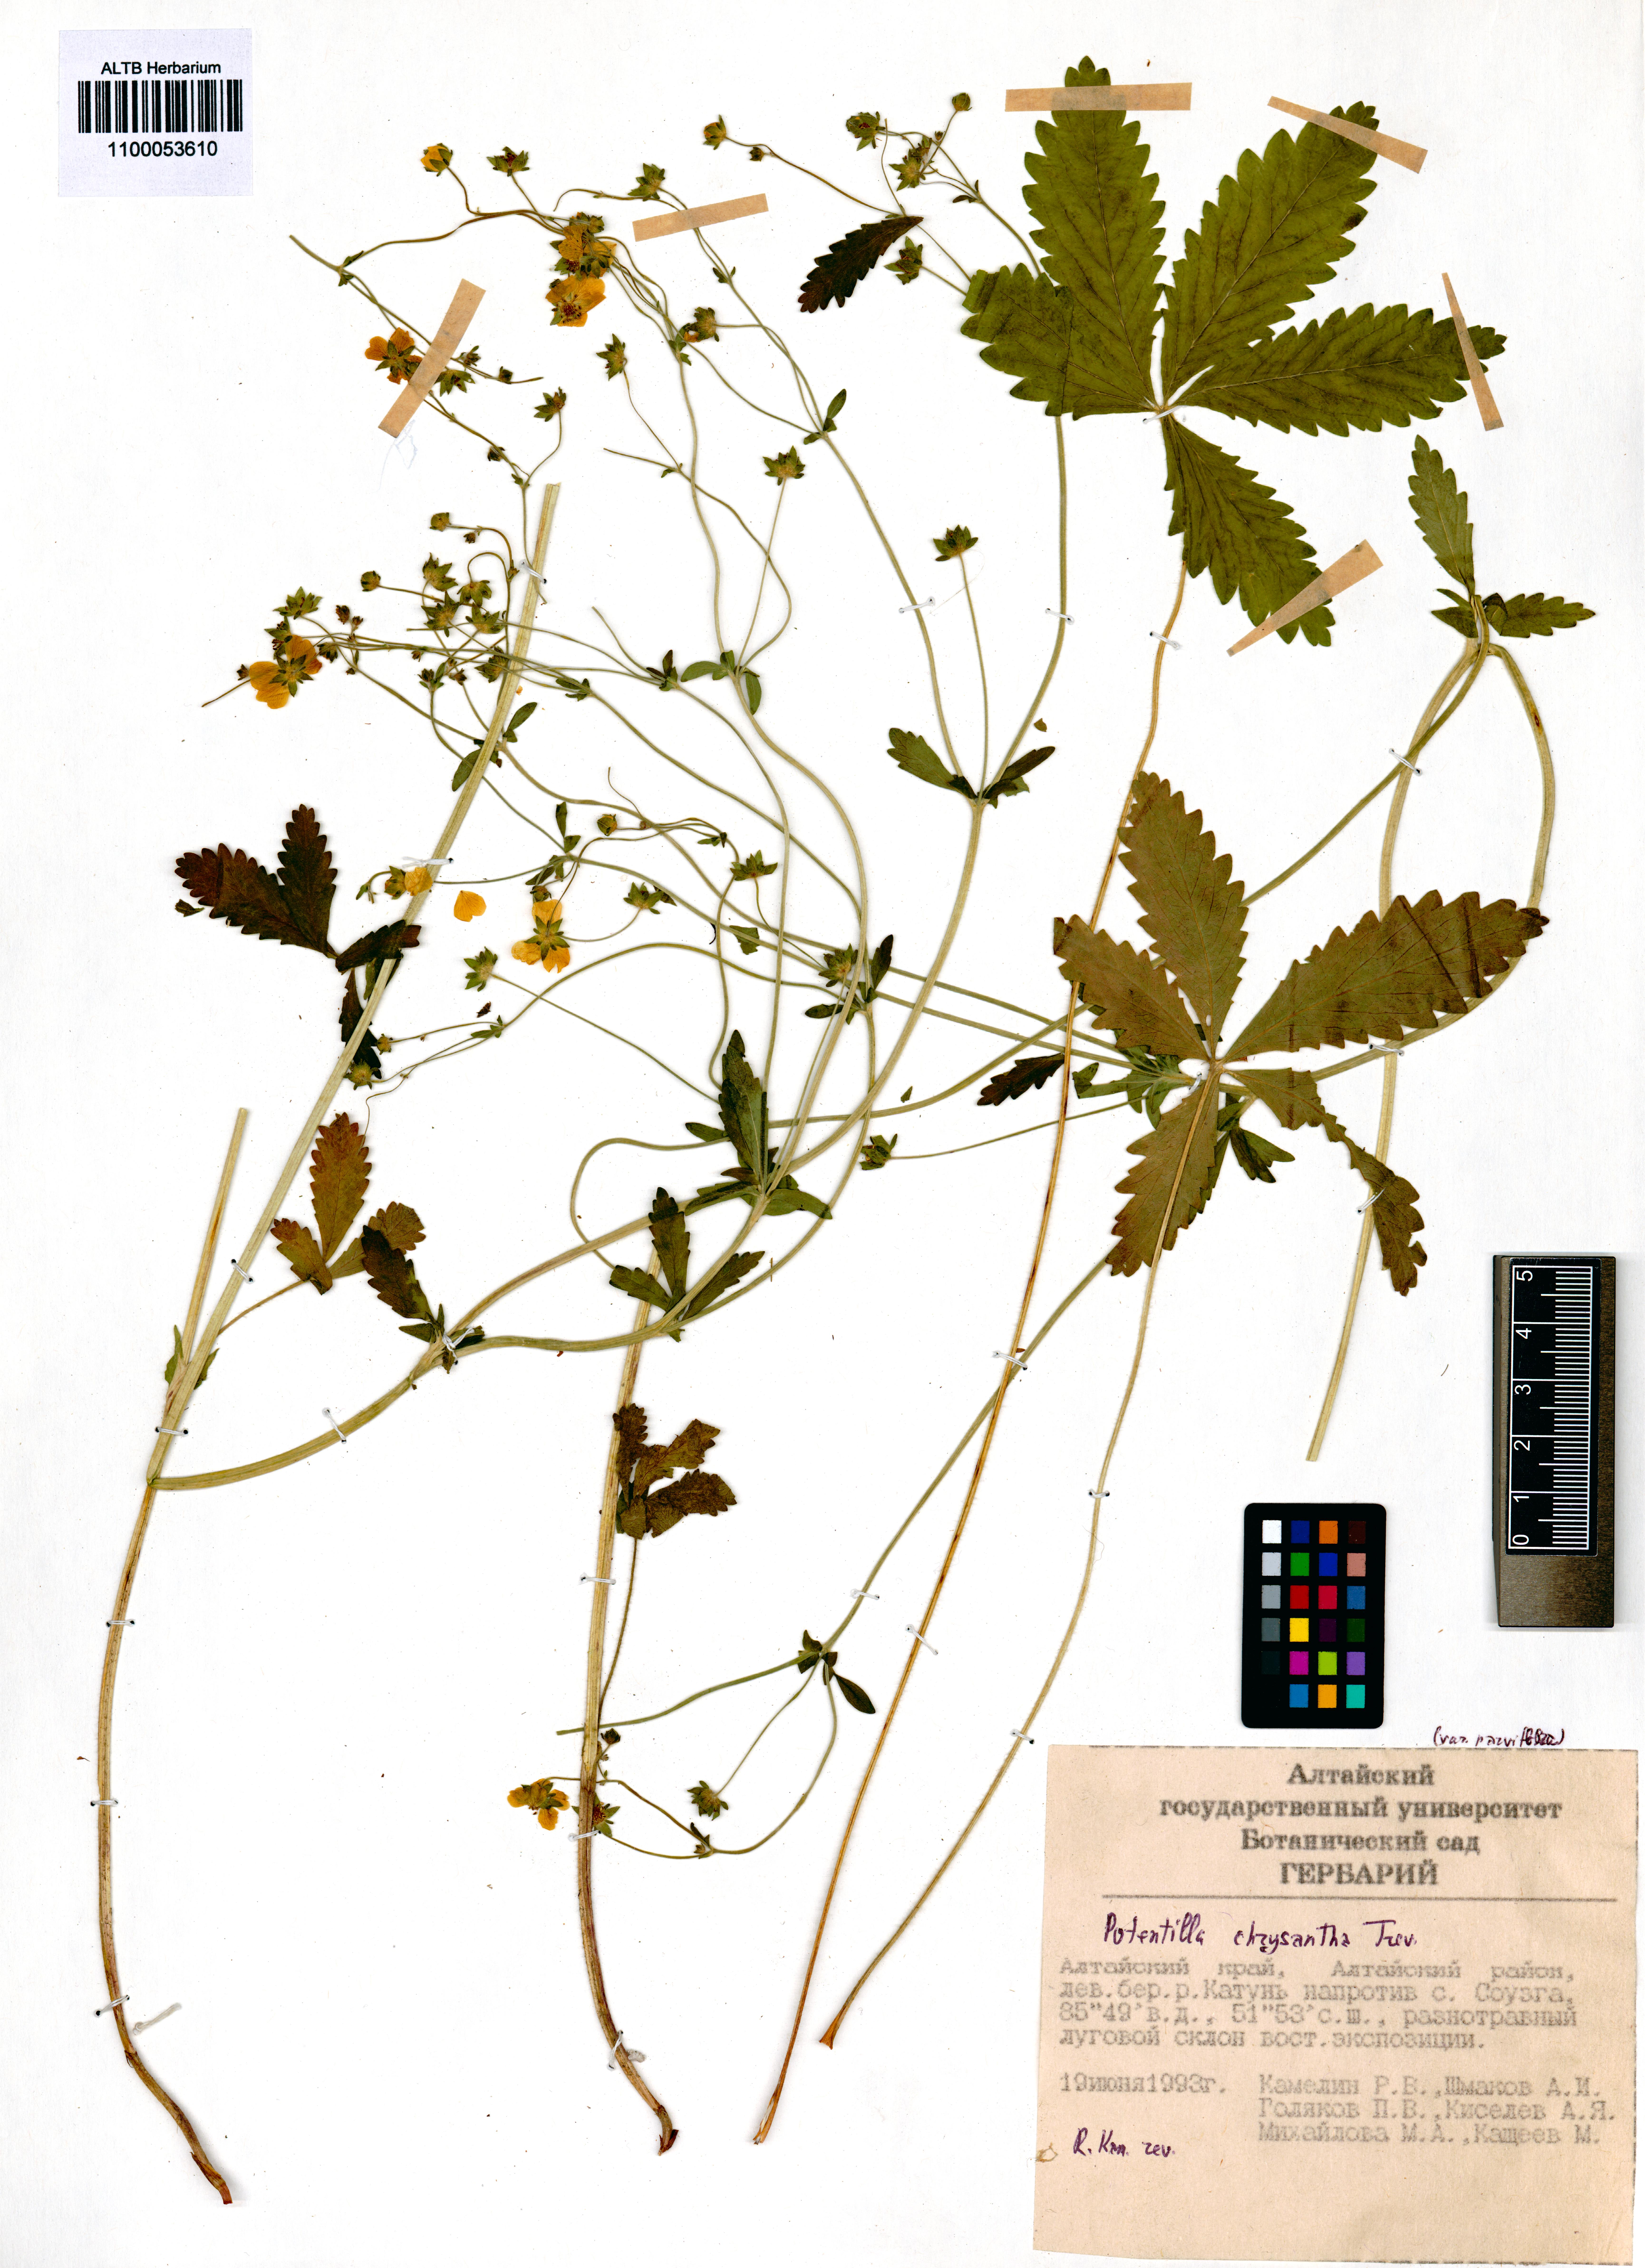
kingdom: Plantae
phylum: Tracheophyta
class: Magnoliopsida
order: Rosales
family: Rosaceae
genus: Potentilla
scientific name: Potentilla chrysantha
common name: Thuringian cinquefoil
